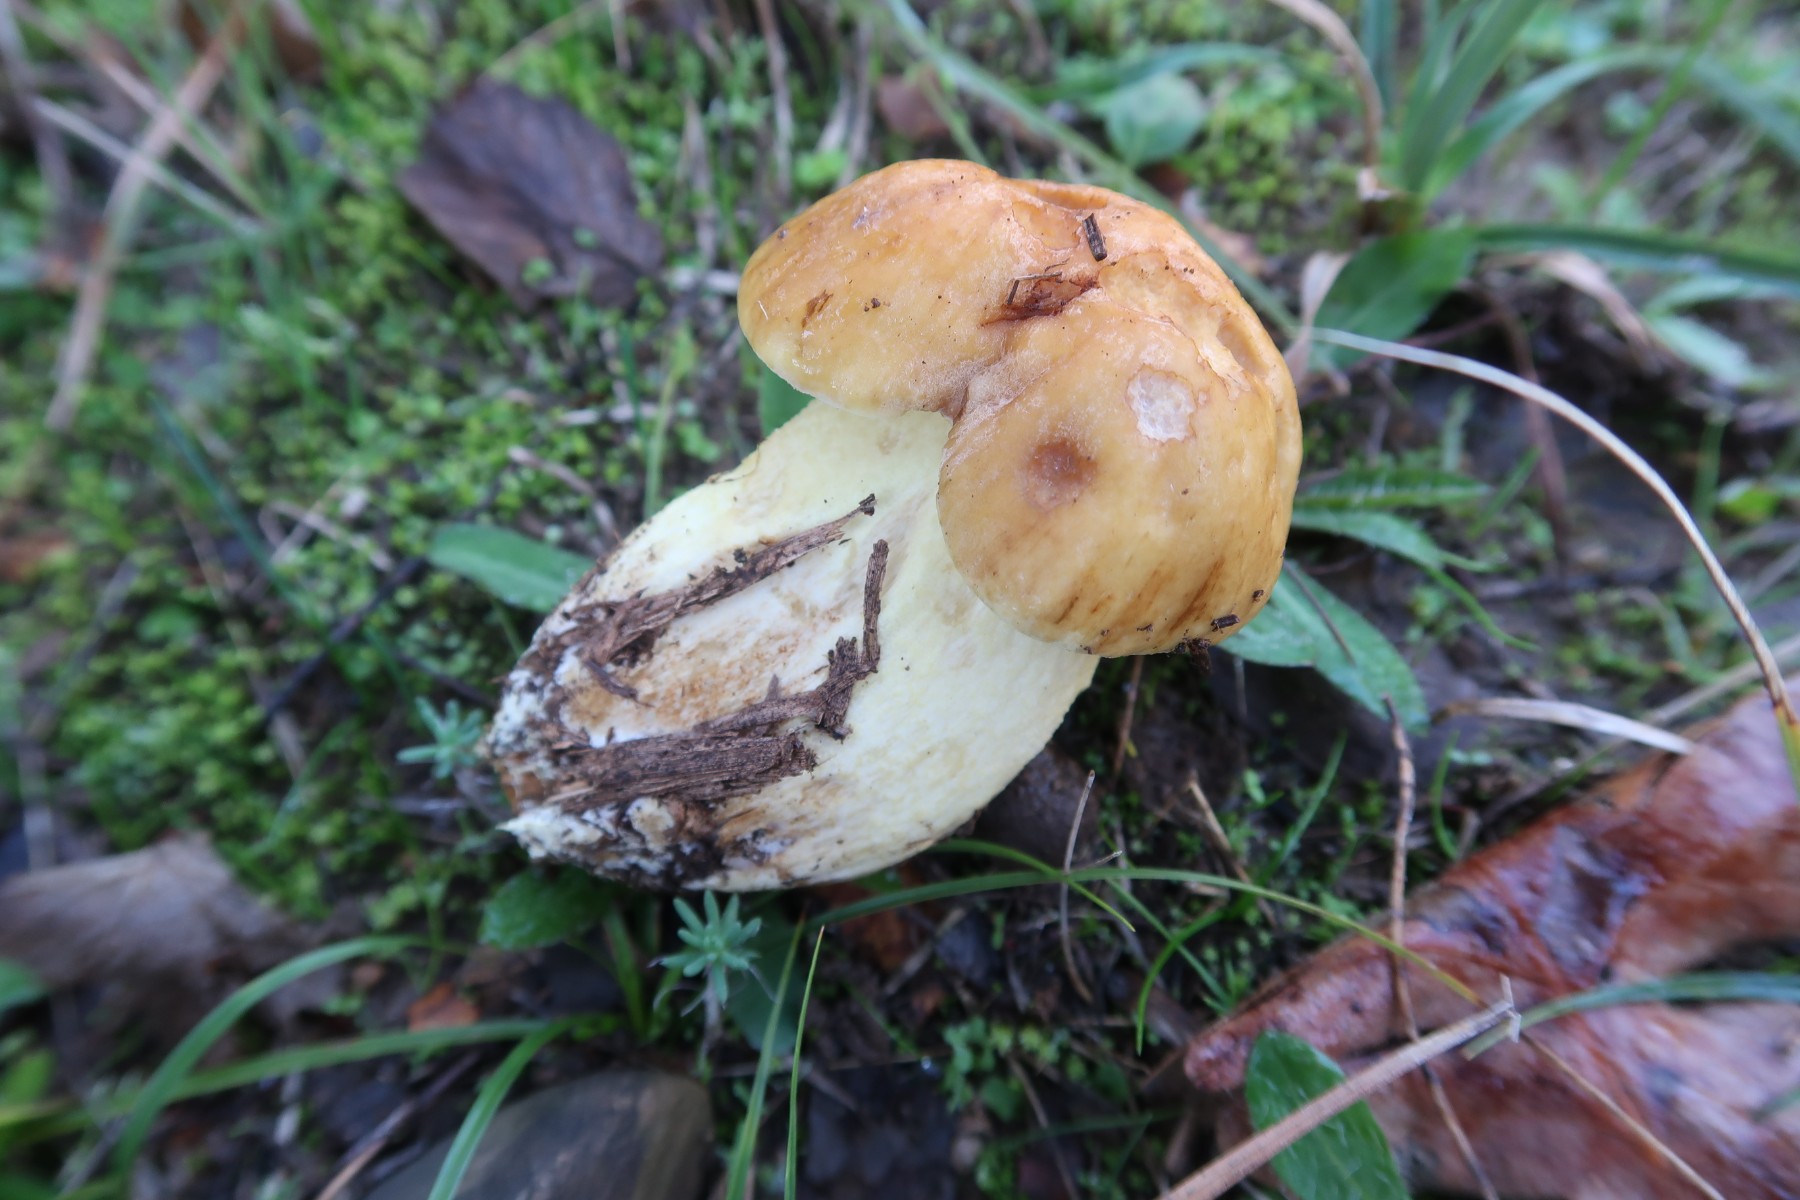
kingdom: Fungi
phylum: Basidiomycota
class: Agaricomycetes
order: Boletales
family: Boletaceae
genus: Leccinellum
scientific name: Leccinellum lepidum
